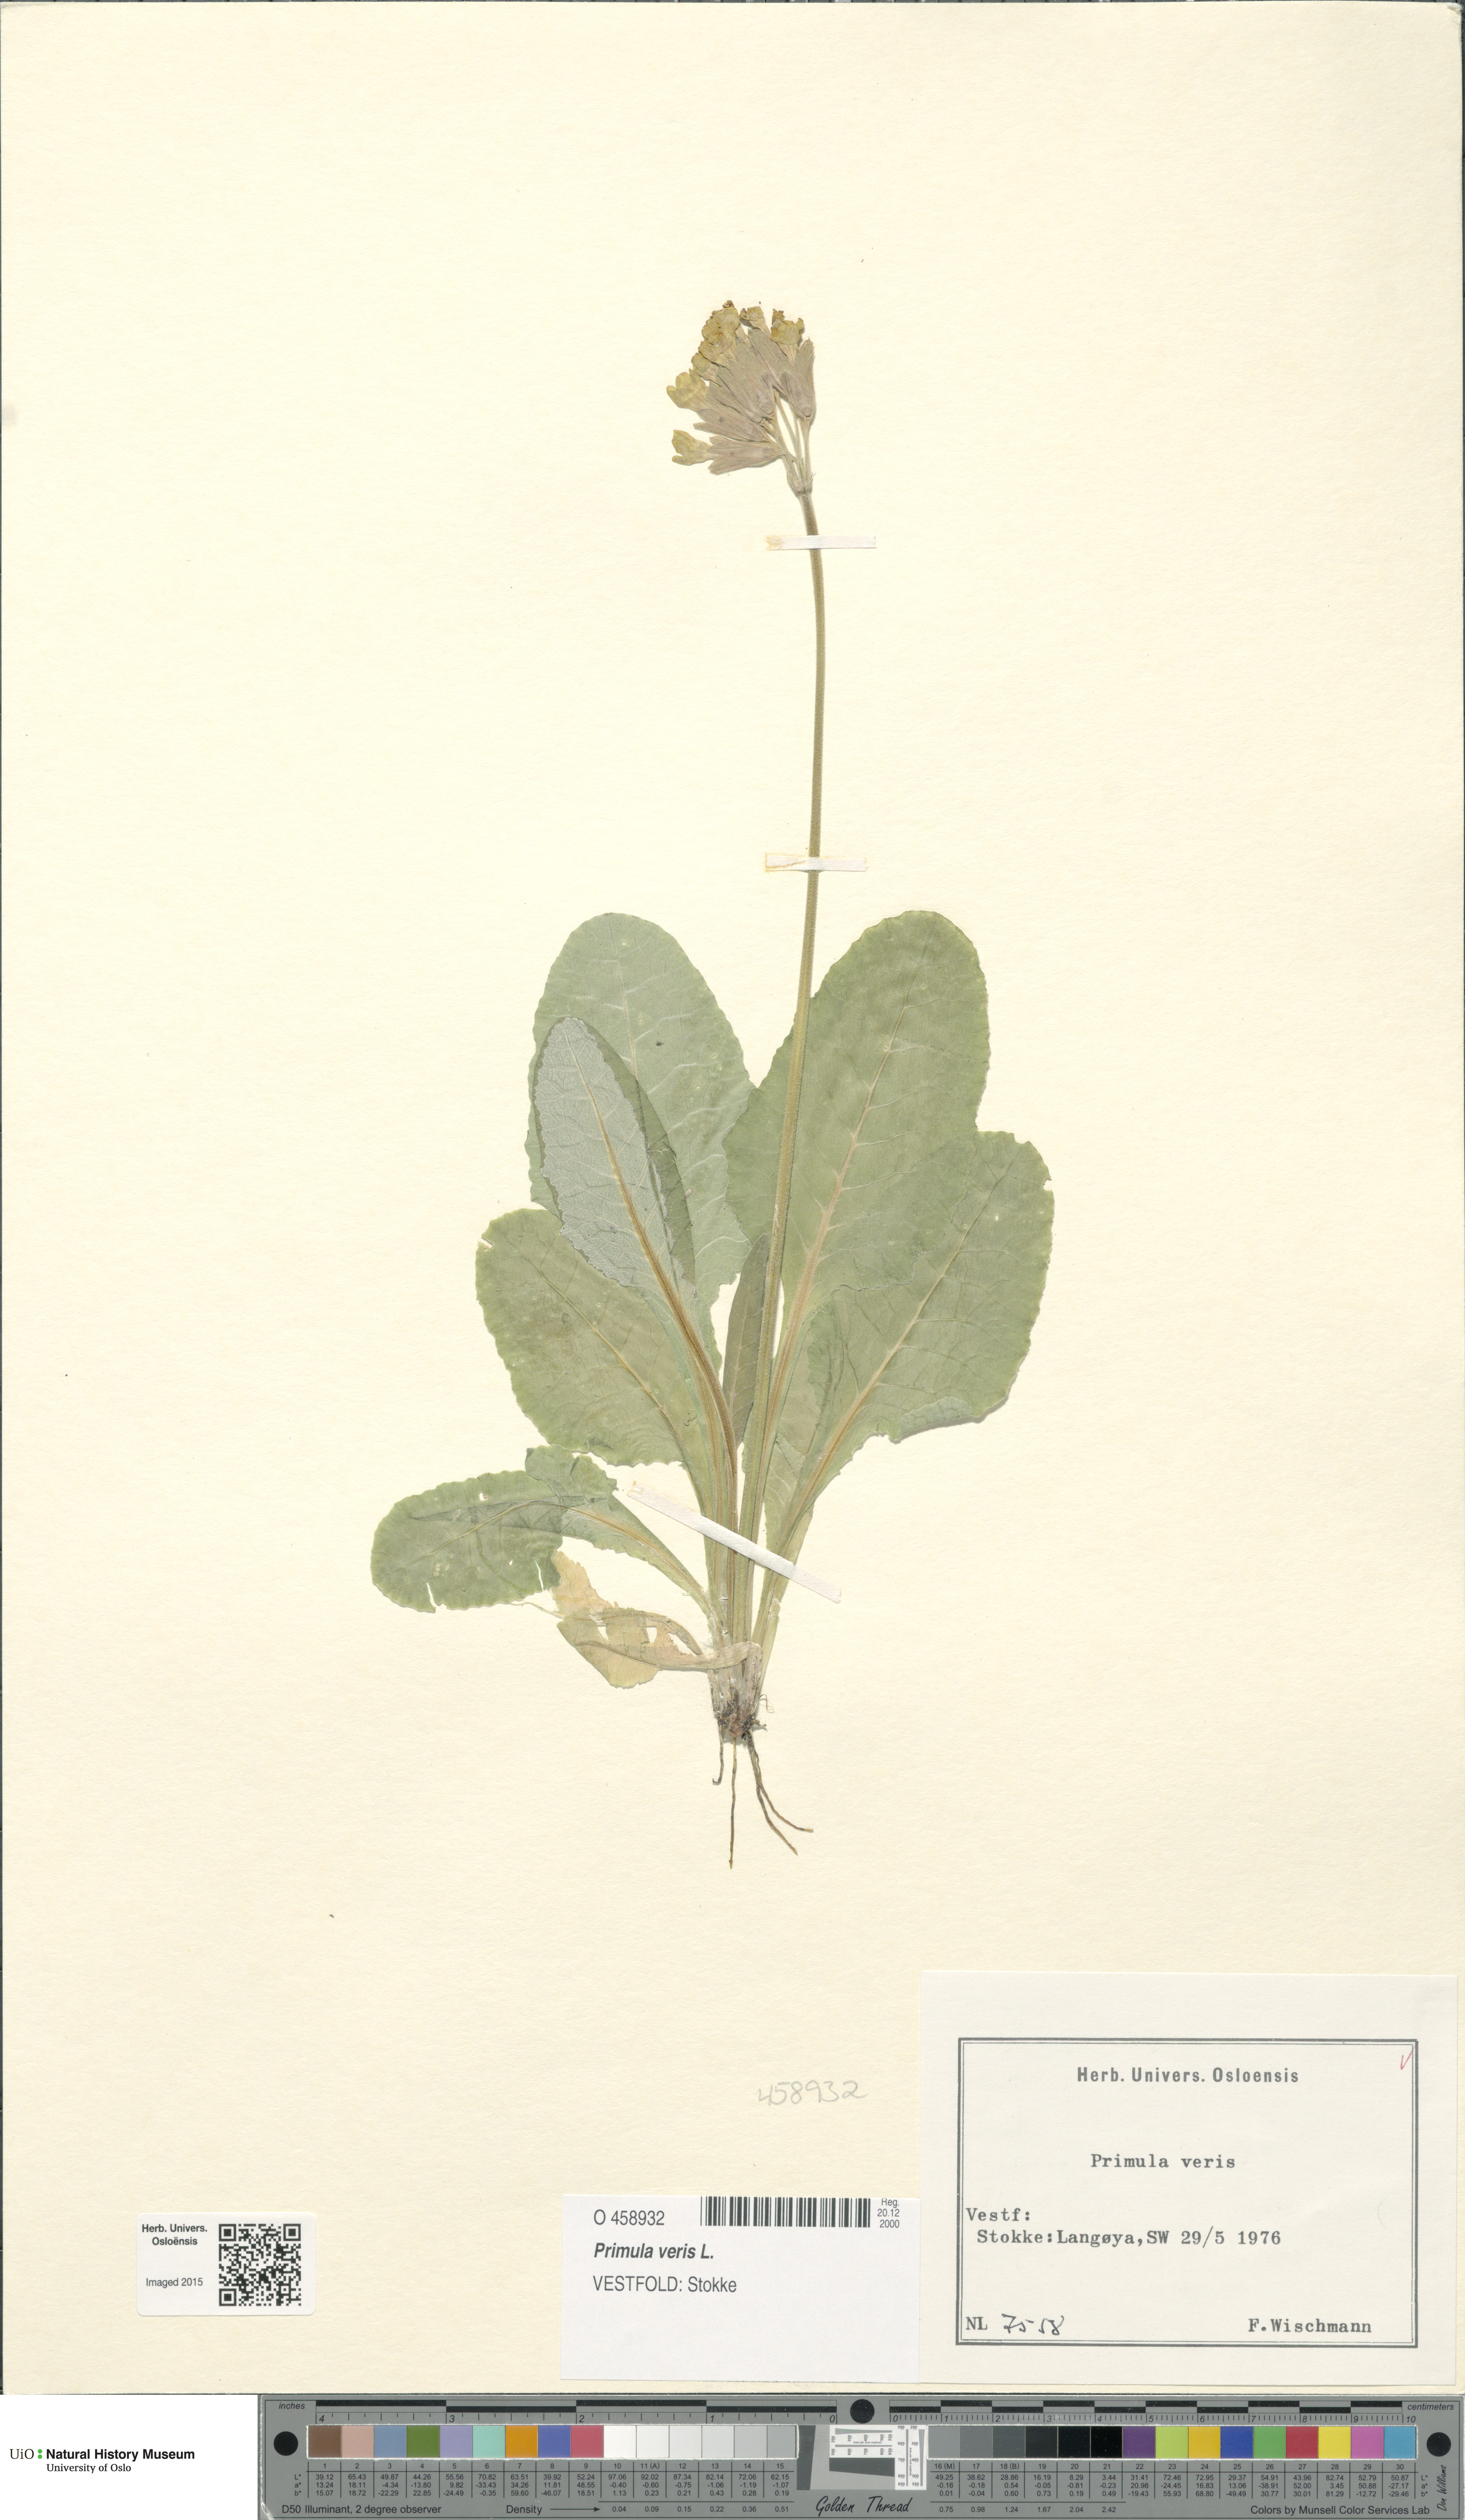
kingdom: Plantae
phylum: Tracheophyta
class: Magnoliopsida
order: Ericales
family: Primulaceae
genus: Primula
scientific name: Primula veris
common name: Cowslip
